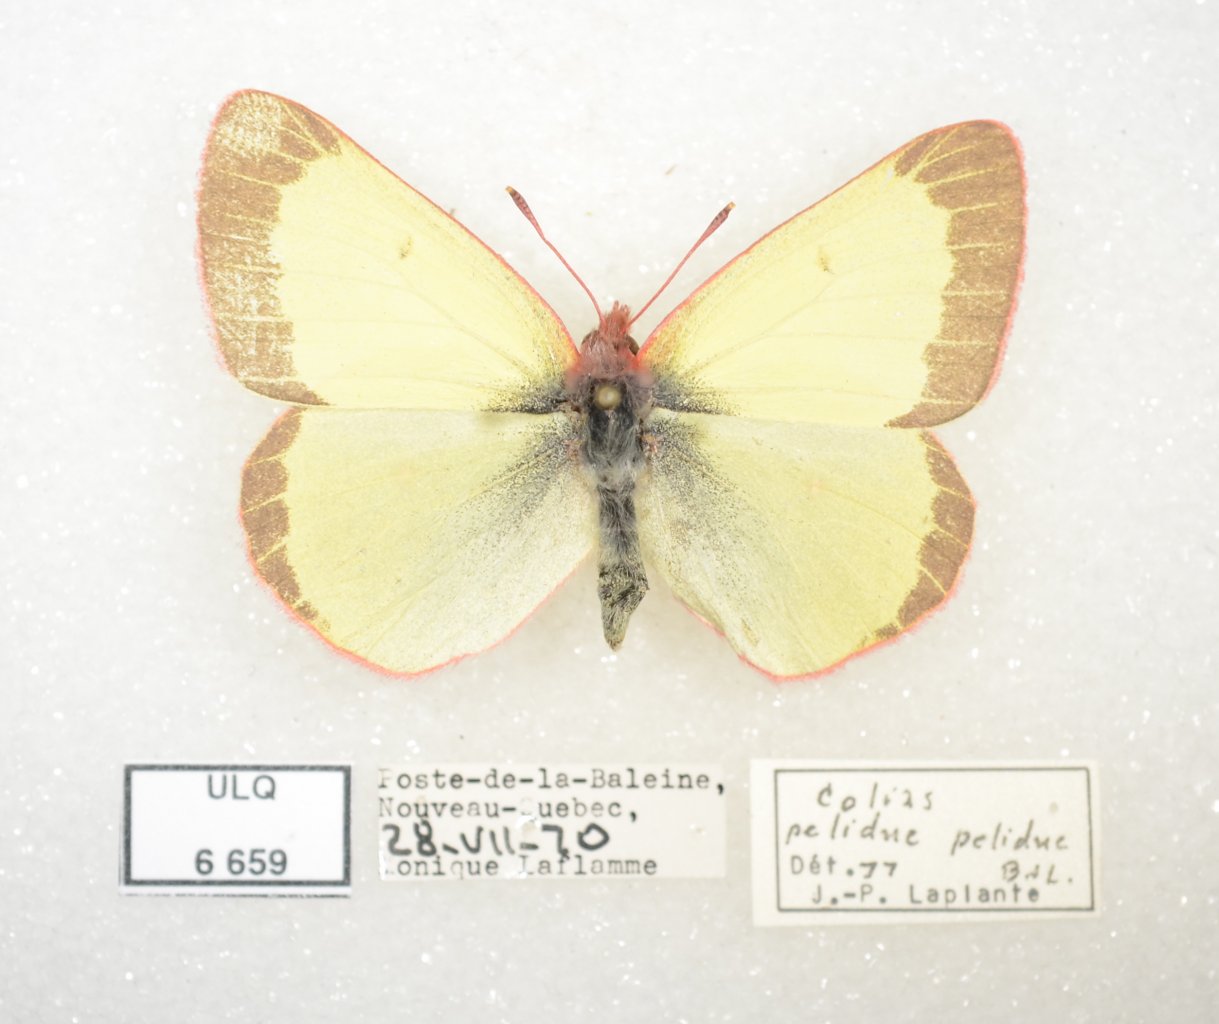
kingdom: Animalia
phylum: Arthropoda
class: Insecta
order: Lepidoptera
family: Pieridae
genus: Colias
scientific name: Colias pelidne
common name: Pelidne Sulphur
